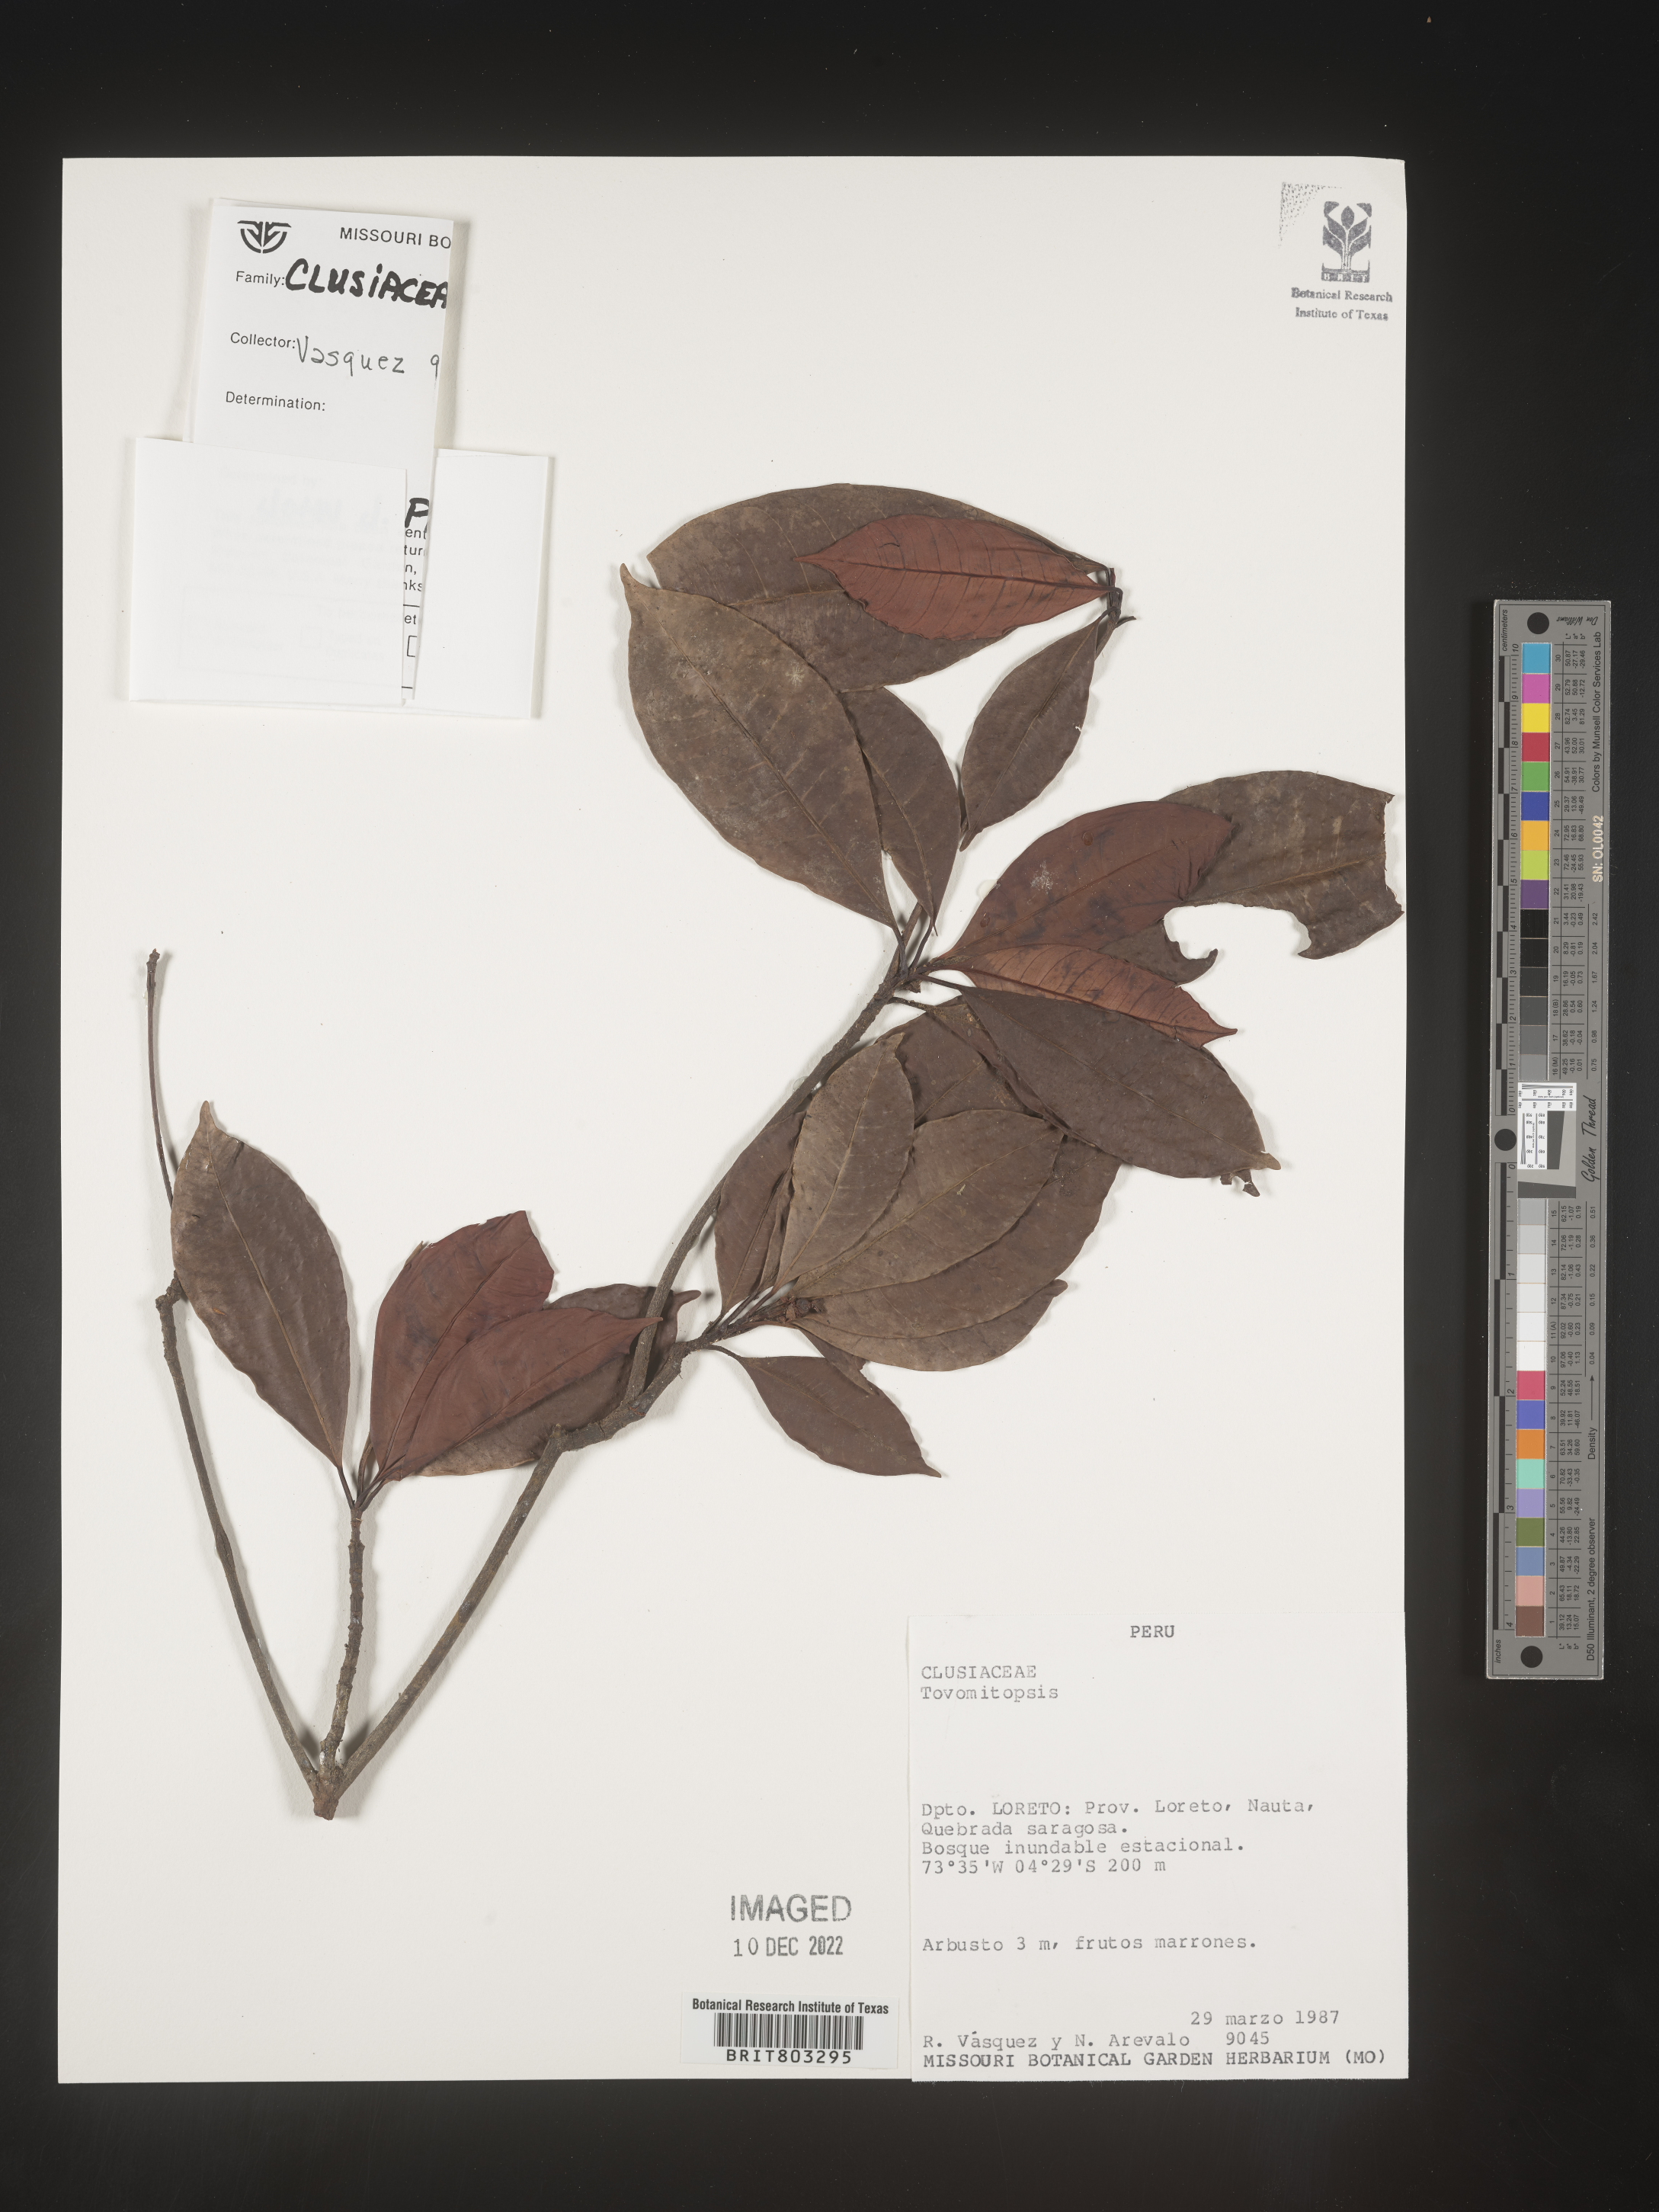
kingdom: Plantae
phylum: Tracheophyta
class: Magnoliopsida
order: Malpighiales
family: Clusiaceae
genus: Tovomita
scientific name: Tovomita
